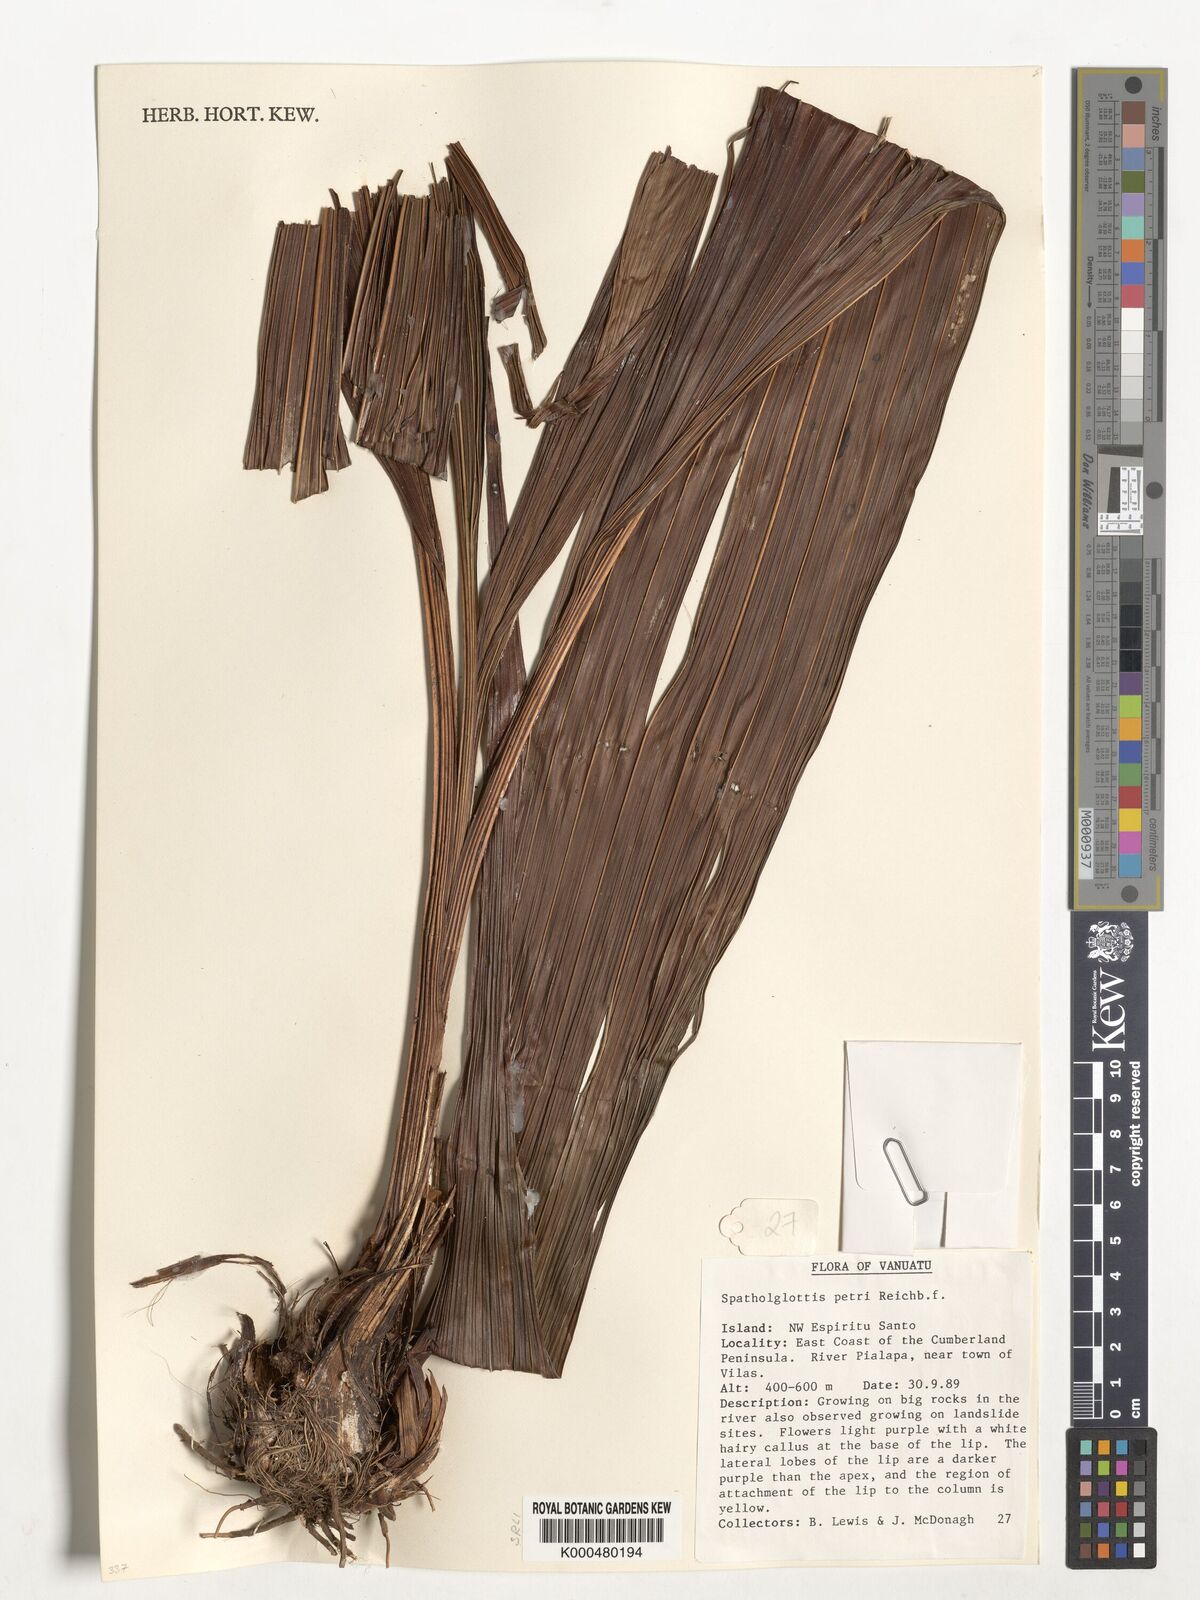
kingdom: Plantae
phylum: Tracheophyta
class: Liliopsida
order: Asparagales
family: Orchidaceae
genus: Spathoglottis
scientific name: Spathoglottis petri
